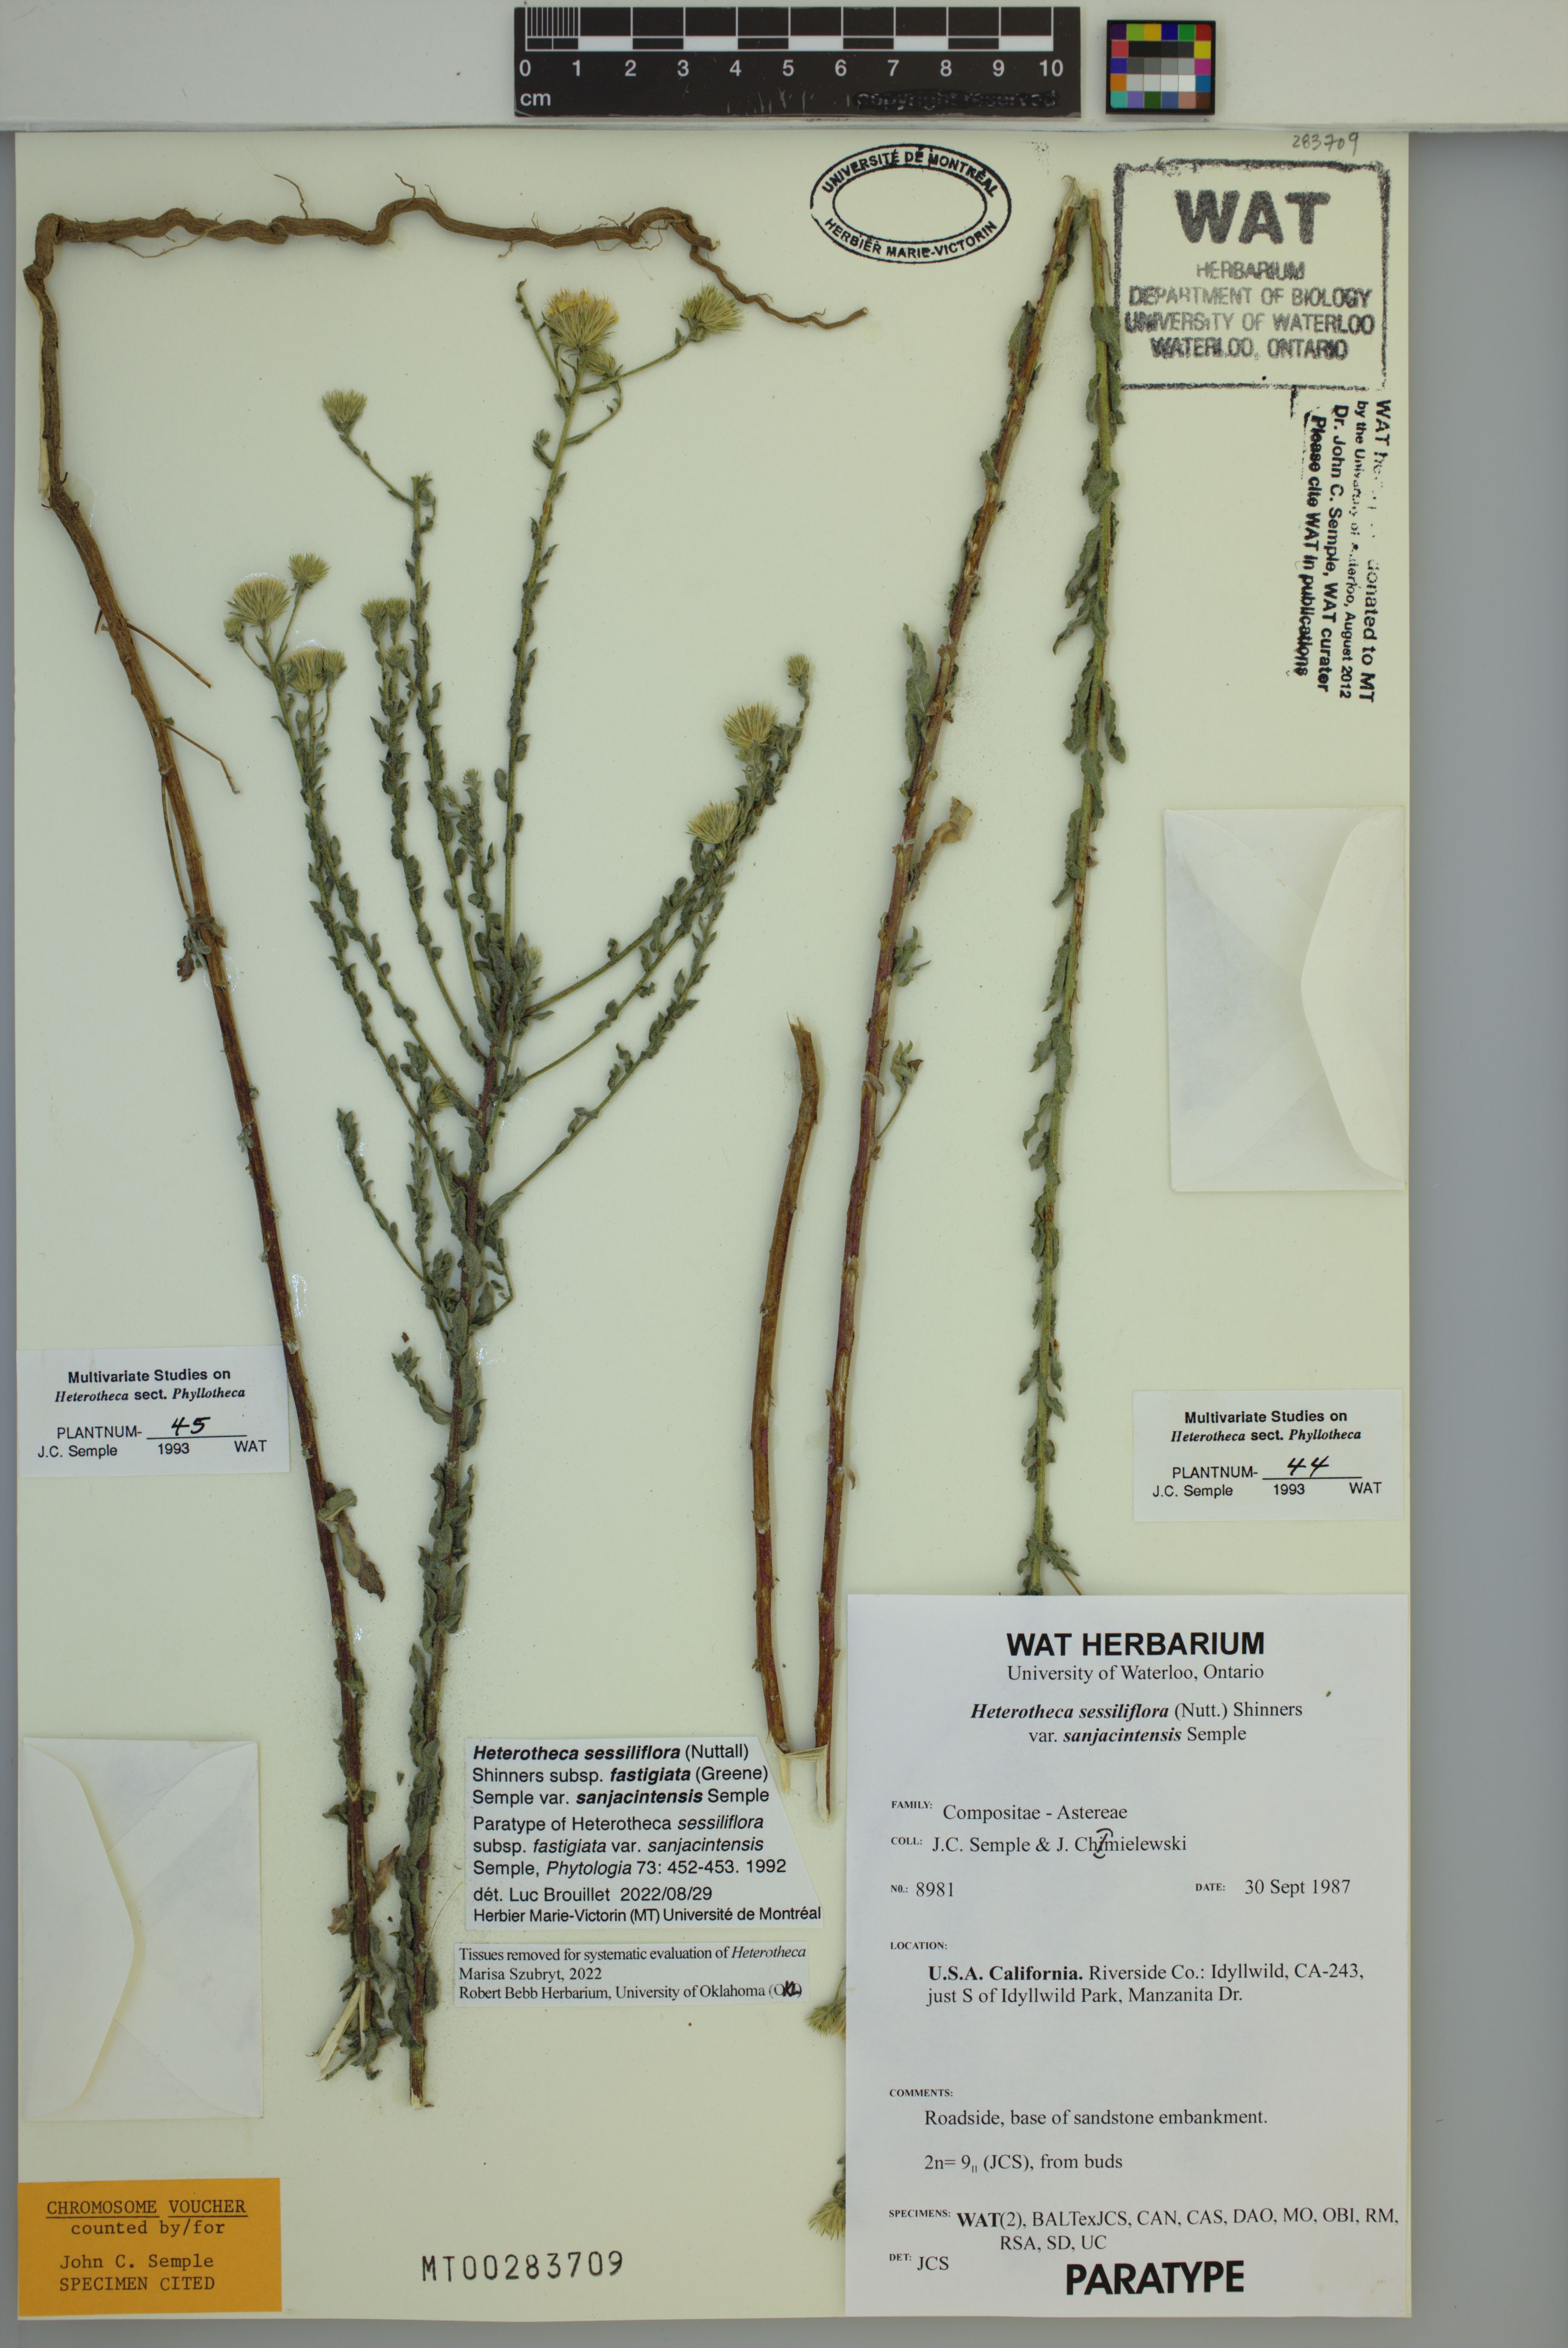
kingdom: Plantae
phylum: Tracheophyta
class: Magnoliopsida
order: Asterales
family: Asteraceae
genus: Heterotheca
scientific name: Heterotheca sessiliflora
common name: Sessile-flower golden-aster
